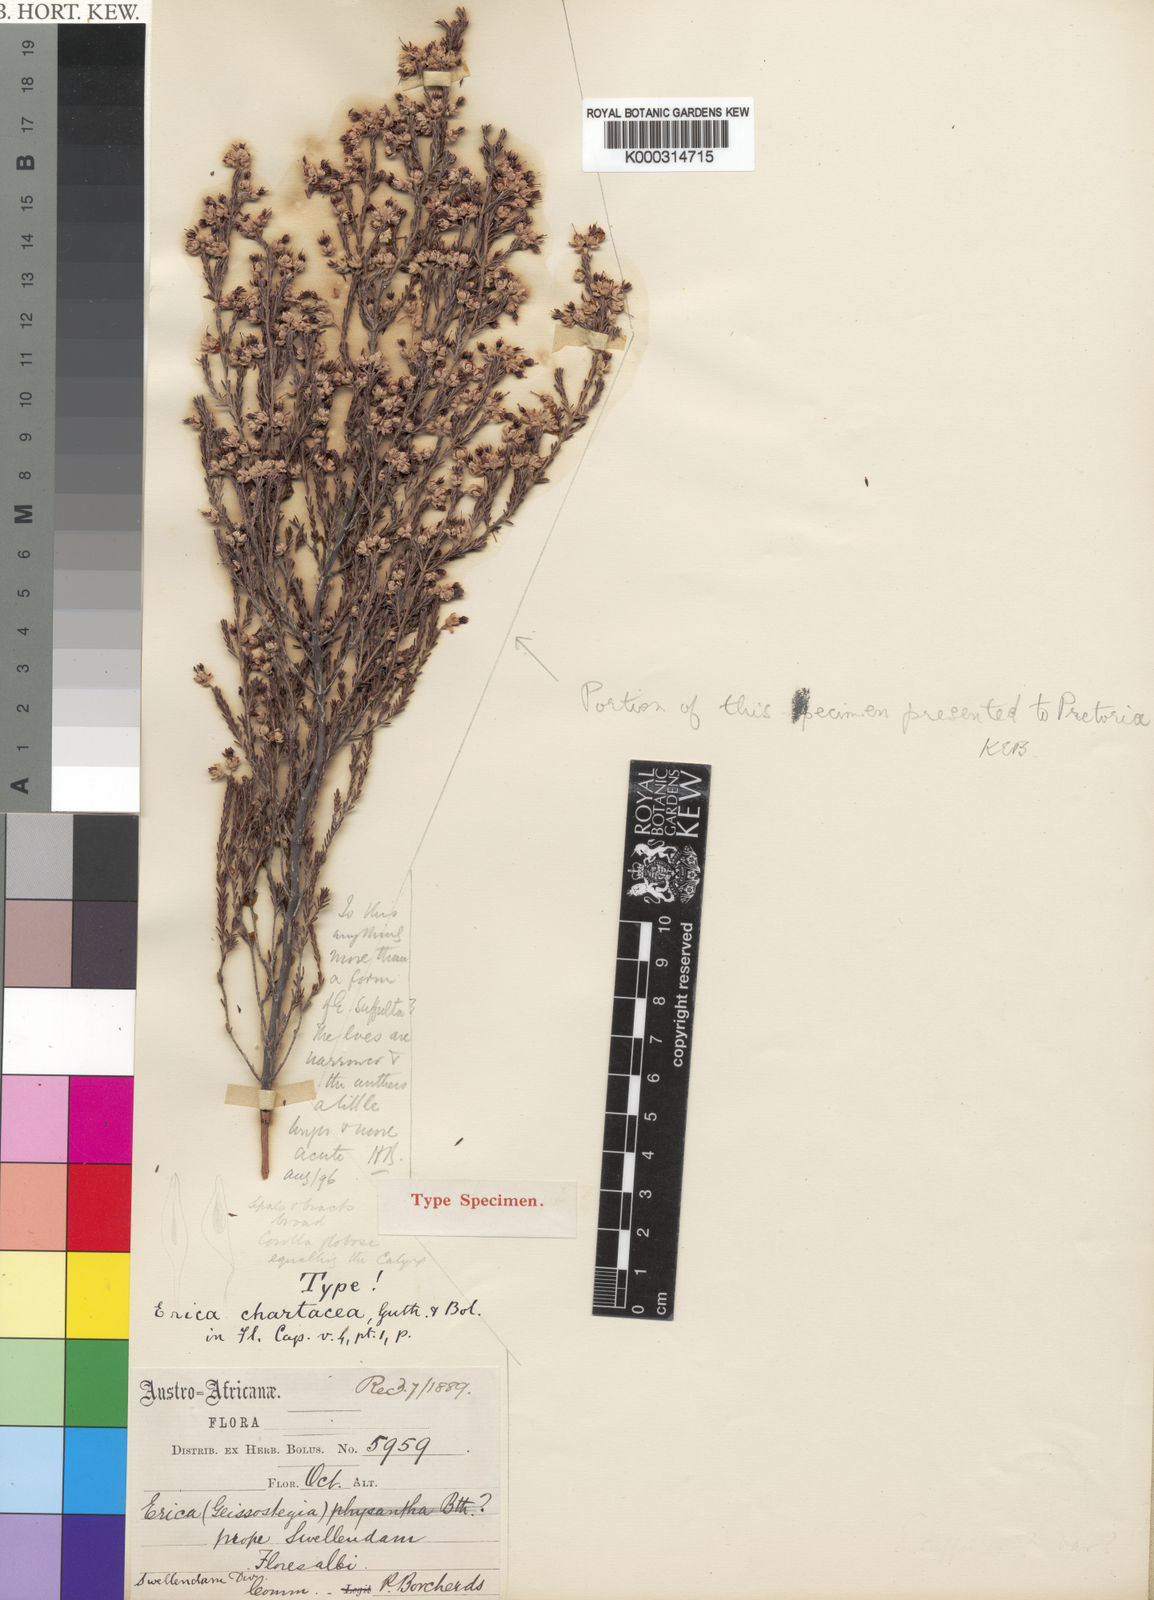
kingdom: Plantae
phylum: Tracheophyta
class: Magnoliopsida
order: Ericales
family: Ericaceae
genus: Erica
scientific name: Erica chartacea
